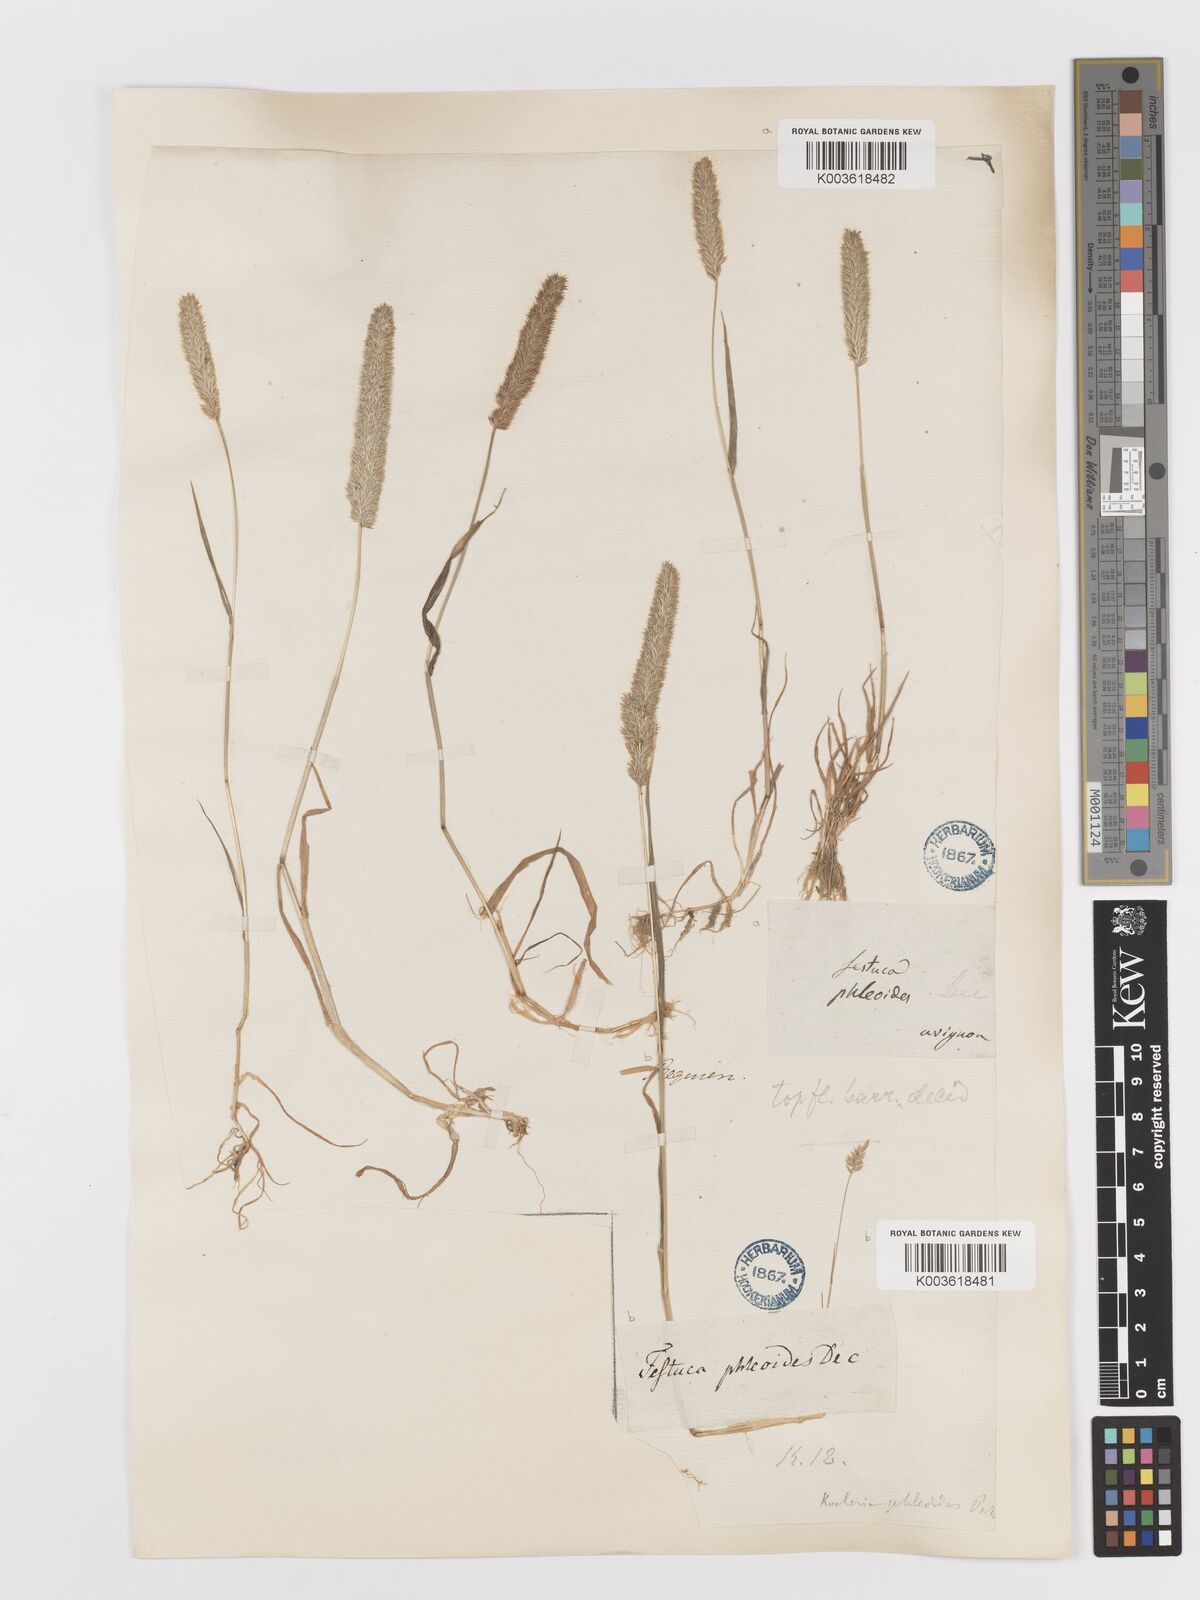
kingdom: Plantae
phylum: Tracheophyta
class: Liliopsida
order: Poales
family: Poaceae
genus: Rostraria
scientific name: Rostraria cristata
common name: Mediterranean hair-grass
